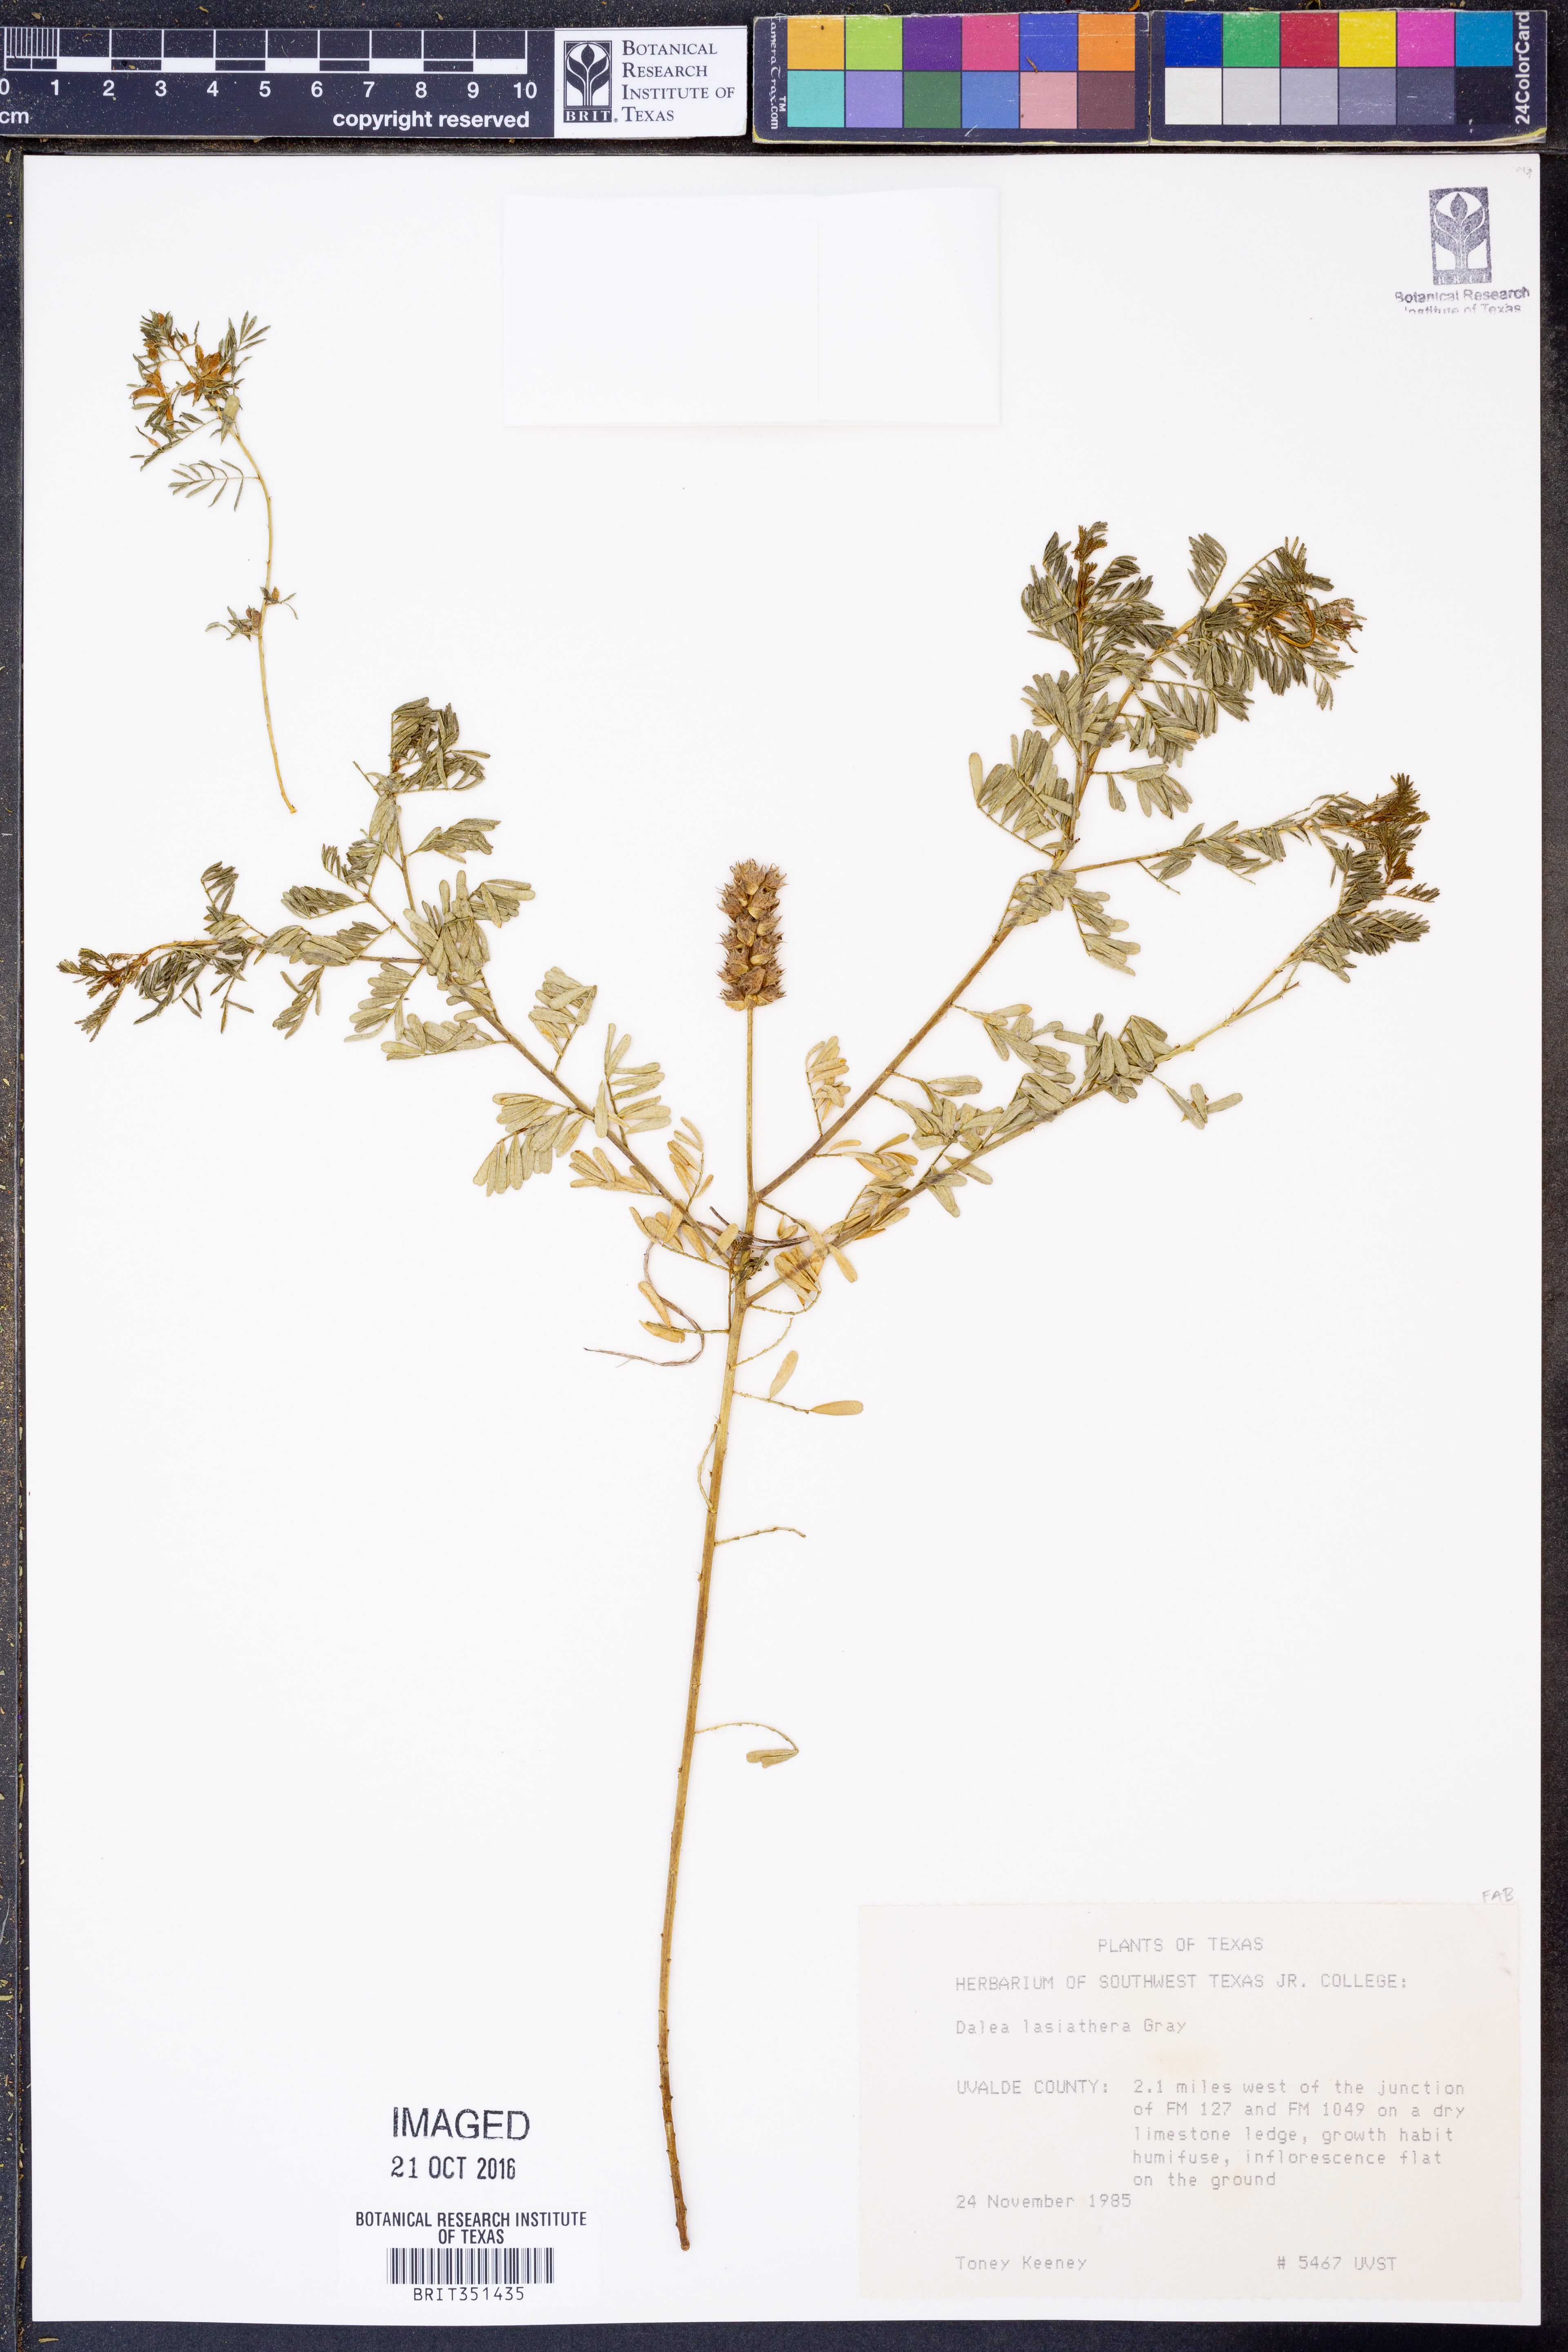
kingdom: Plantae
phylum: Tracheophyta
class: Magnoliopsida
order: Fabales
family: Fabaceae
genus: Dalea
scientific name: Dalea lasiathera
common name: Purple prairie-clover
